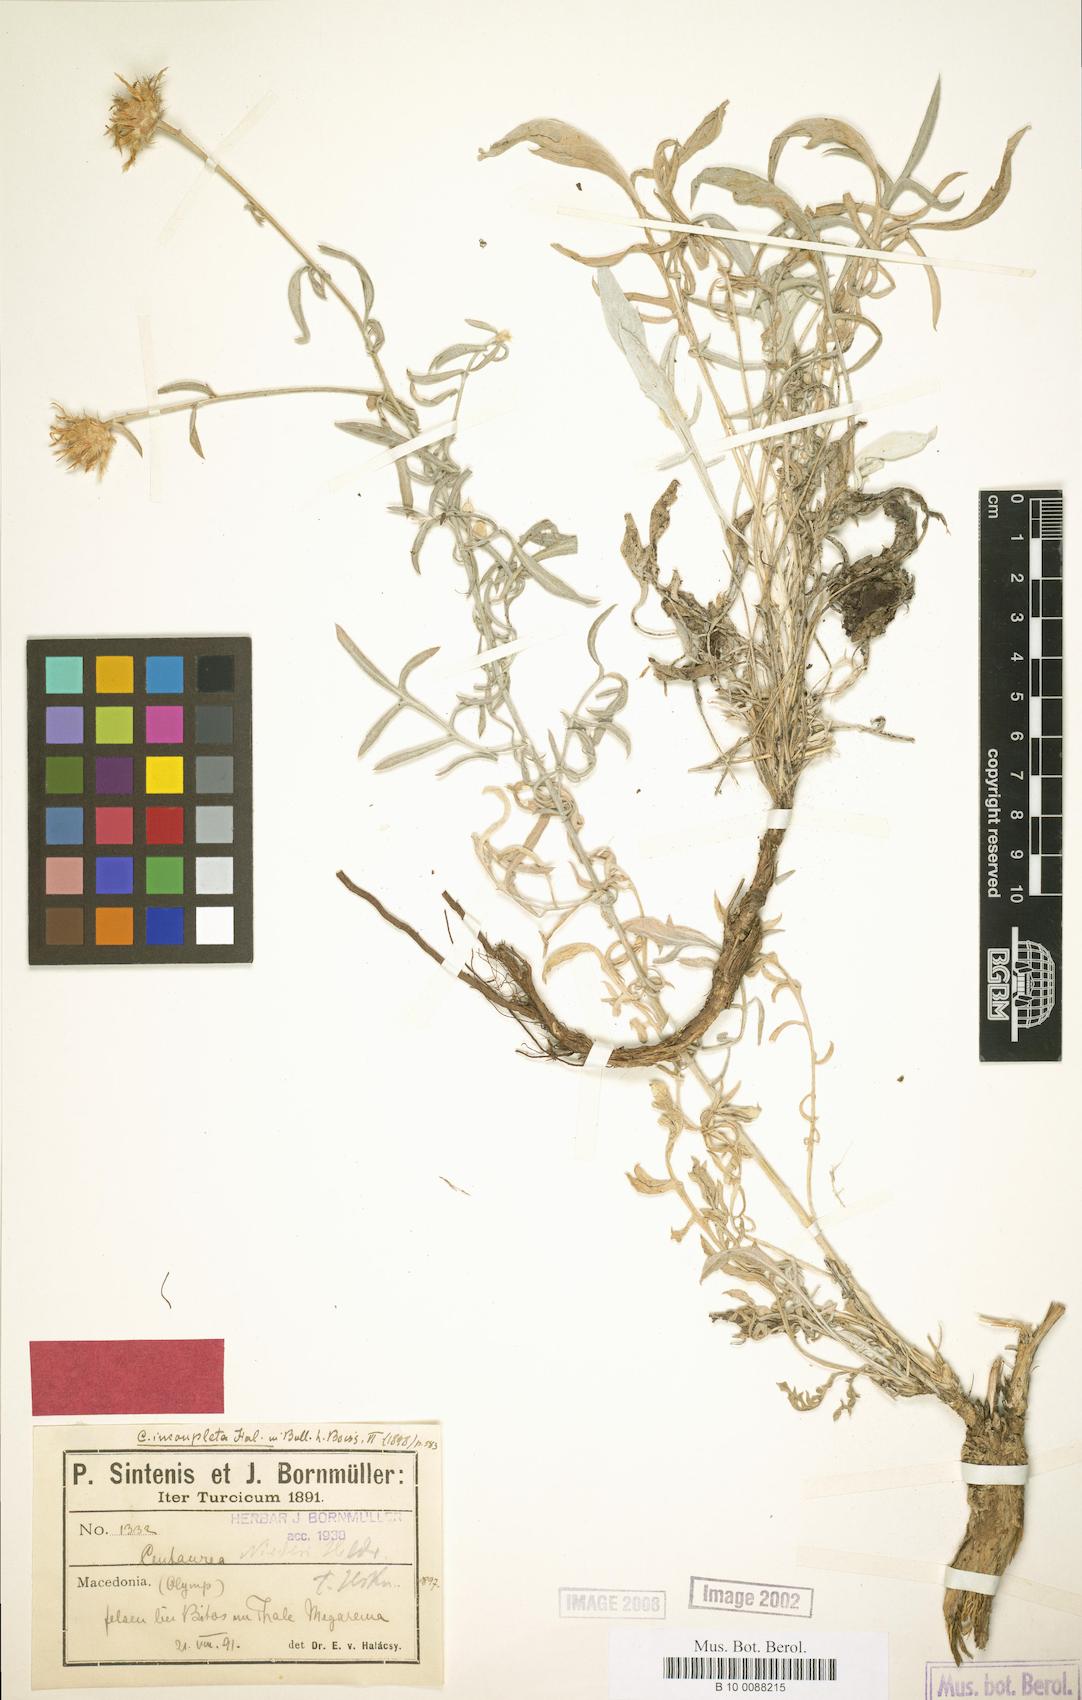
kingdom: Plantae
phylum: Tracheophyta
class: Magnoliopsida
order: Asterales
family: Asteraceae
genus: Centaurea
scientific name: Centaurea incompleta
